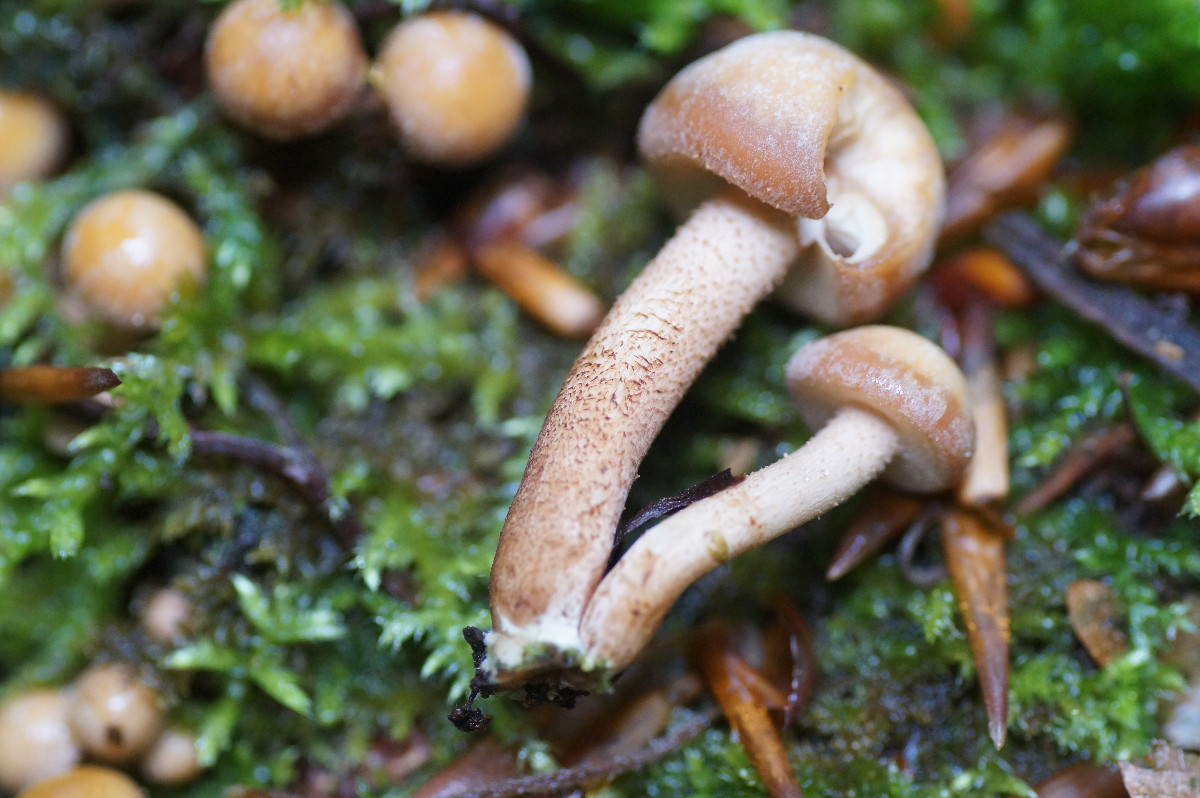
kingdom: Fungi
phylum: Basidiomycota
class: Agaricomycetes
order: Agaricales
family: Strophariaceae
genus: Kuehneromyces
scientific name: Kuehneromyces mutabilis
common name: foranderlig skælhat
